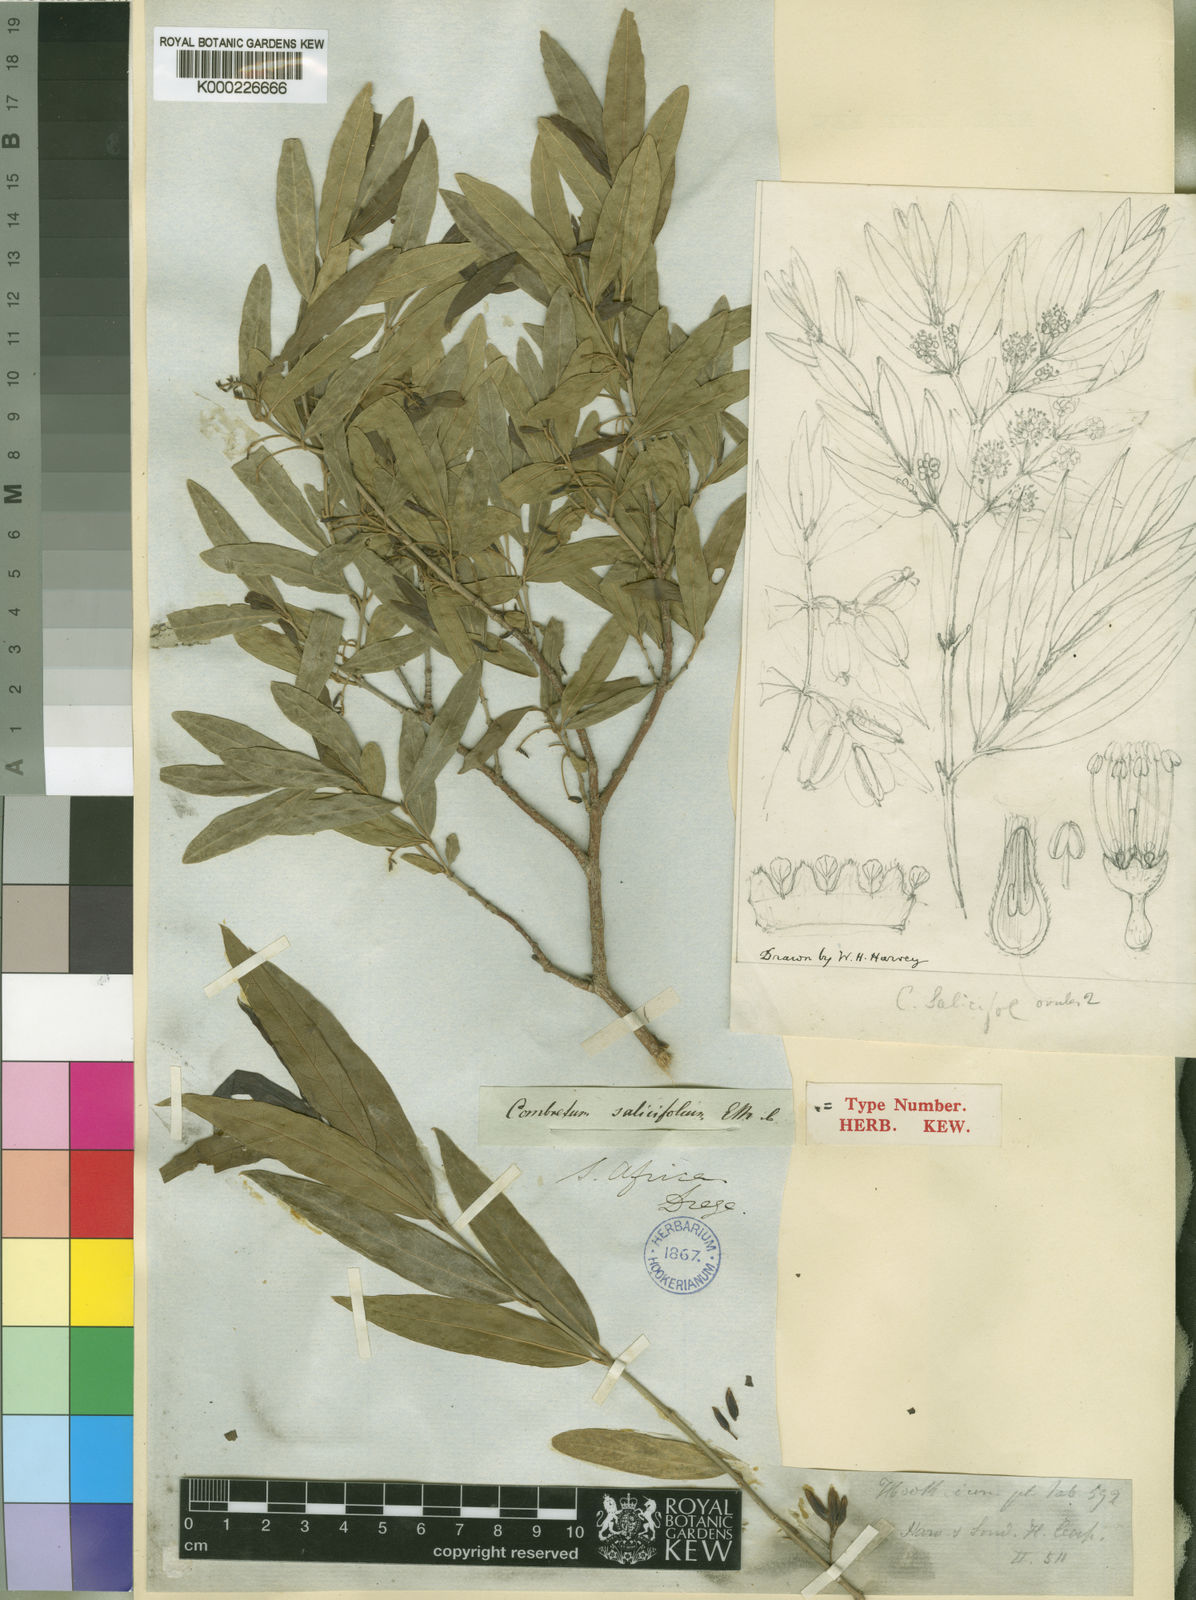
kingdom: Plantae
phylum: Tracheophyta
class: Magnoliopsida
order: Myrtales
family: Combretaceae
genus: Combretum
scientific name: Combretum caffrum
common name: Cape bushwillow
